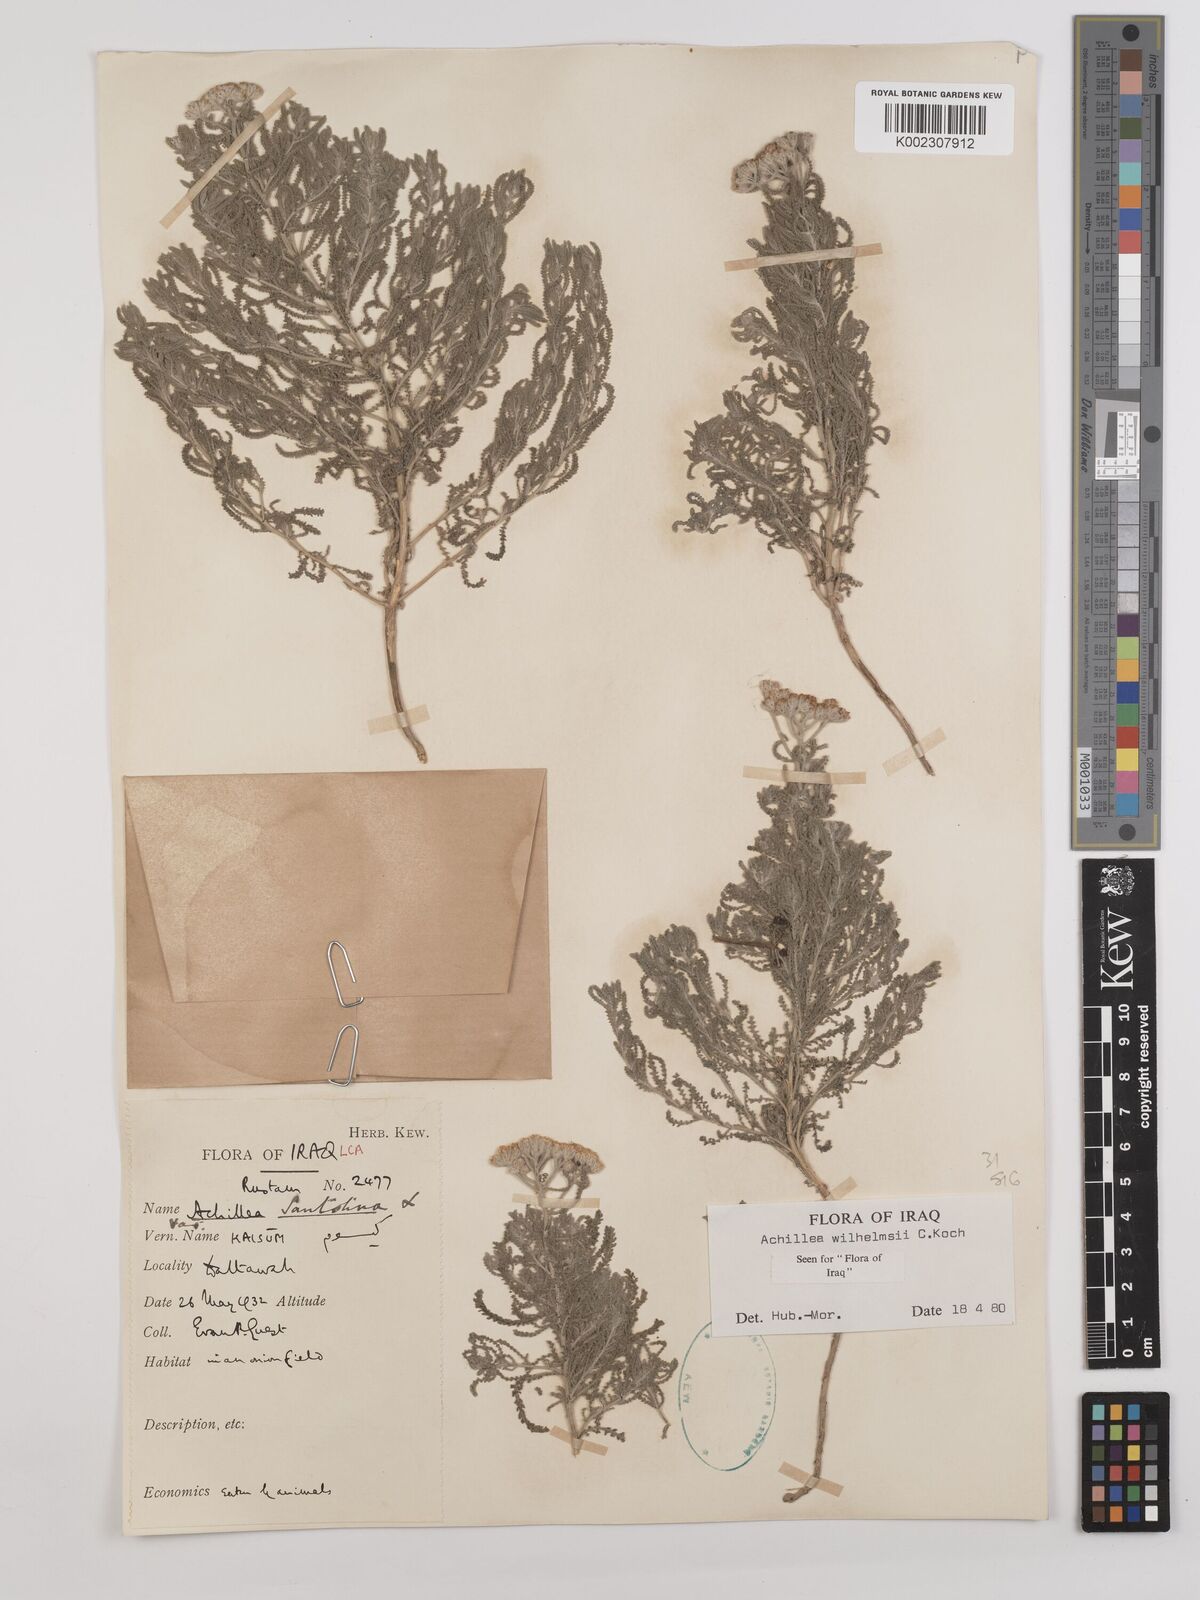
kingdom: Plantae
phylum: Tracheophyta
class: Magnoliopsida
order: Asterales
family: Asteraceae
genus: Achillea
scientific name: Achillea wilhelmsii
